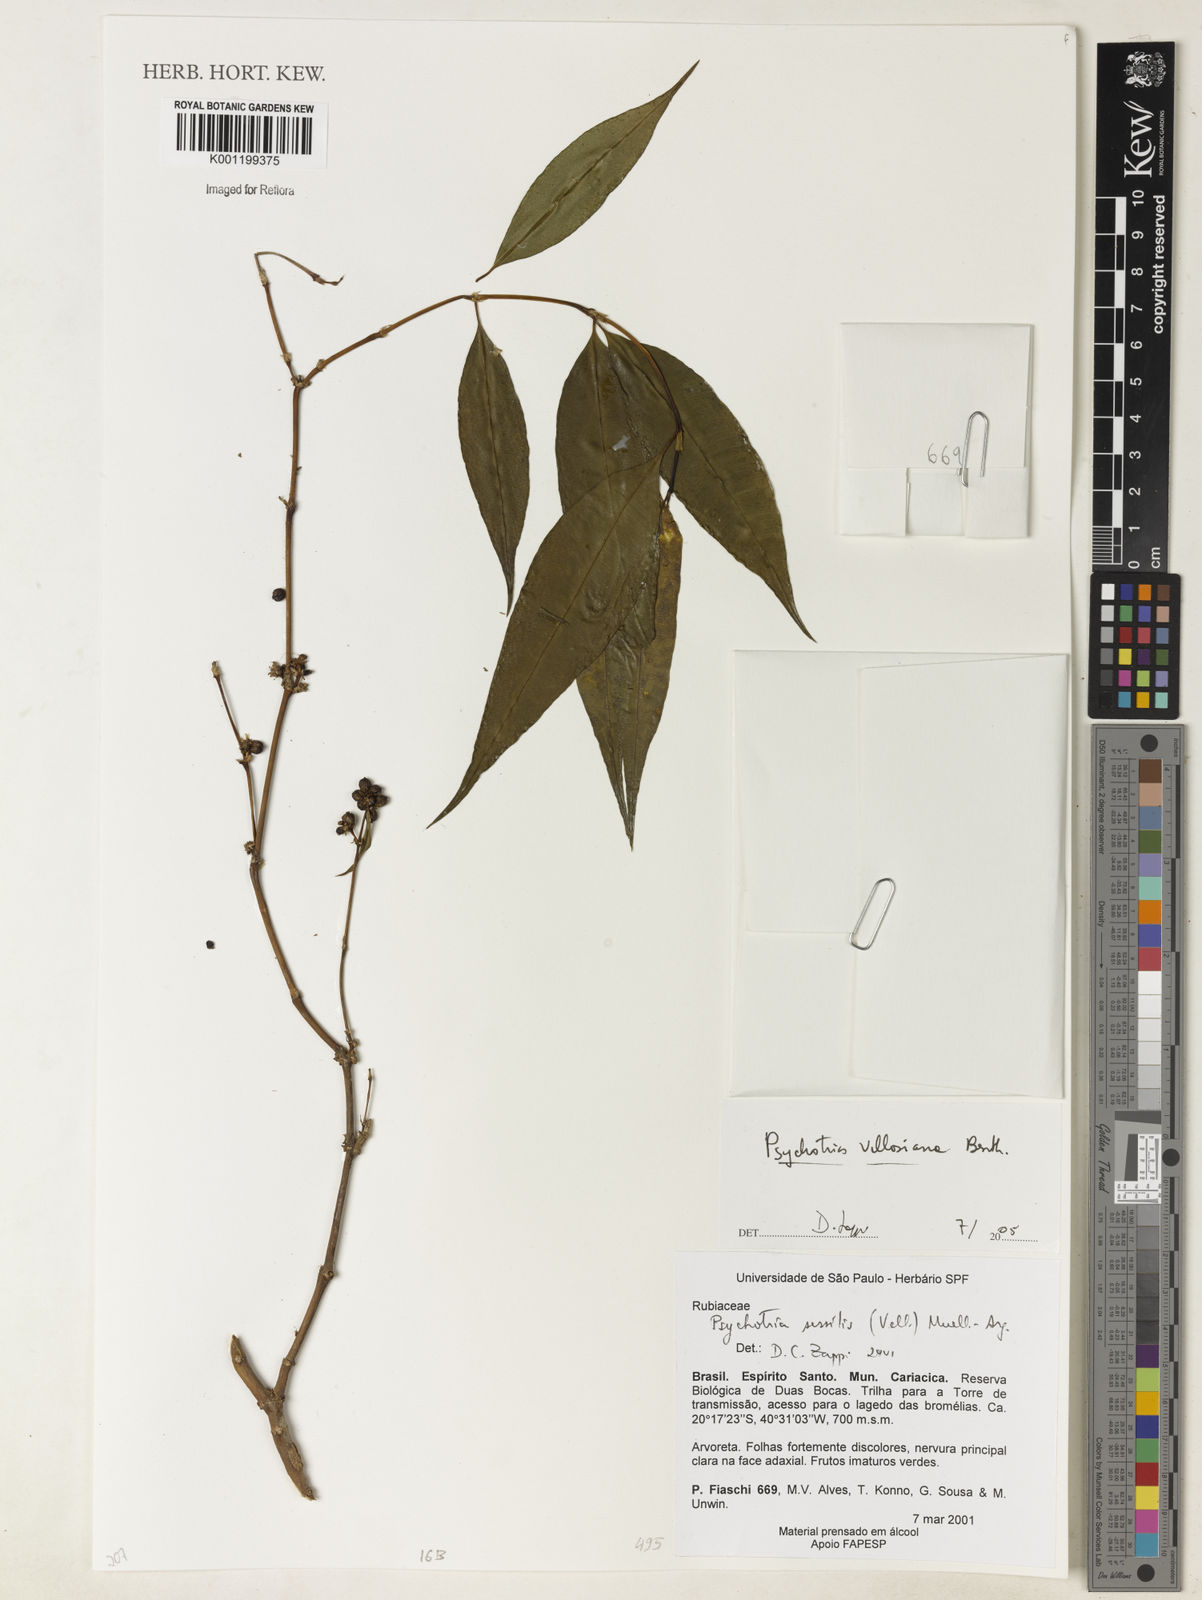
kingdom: Plantae
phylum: Tracheophyta
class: Magnoliopsida
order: Gentianales
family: Rubiaceae
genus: Rudgea
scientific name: Rudgea sessilis
